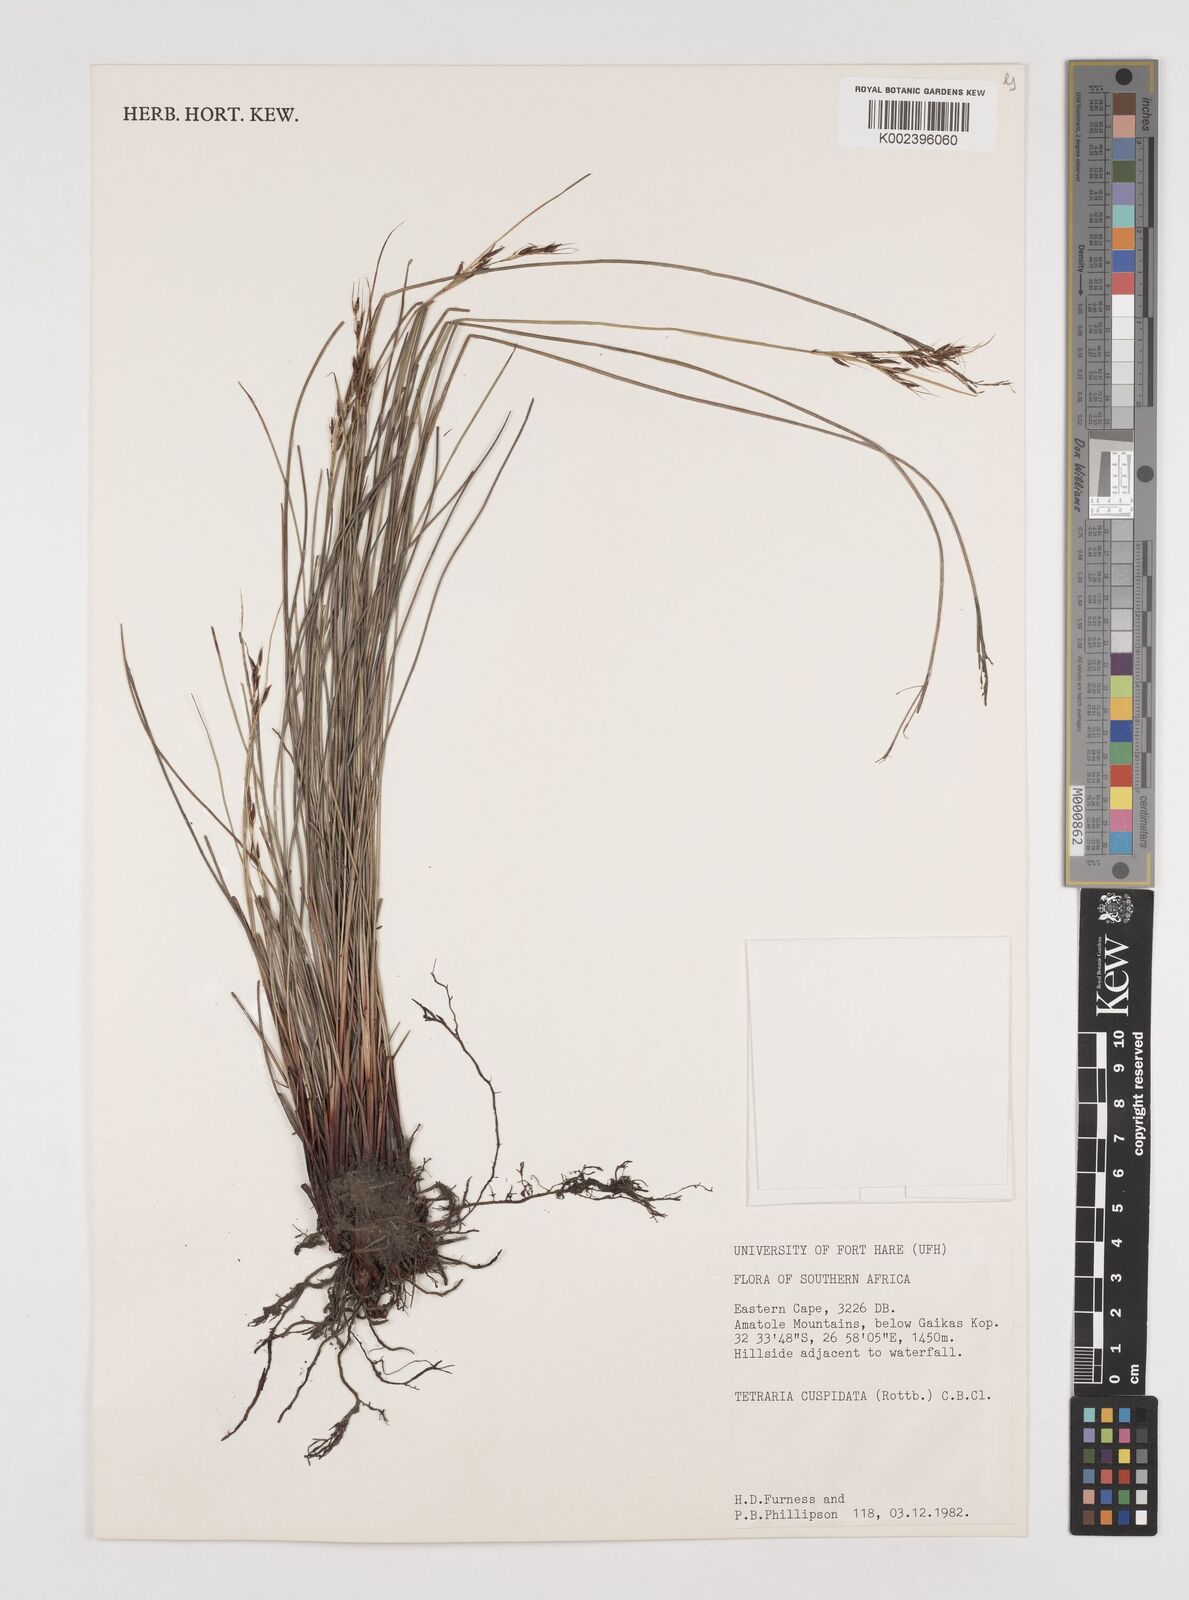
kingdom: Plantae
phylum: Tracheophyta
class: Liliopsida
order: Poales
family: Cyperaceae
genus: Schoenus
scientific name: Schoenus cuspidatus
